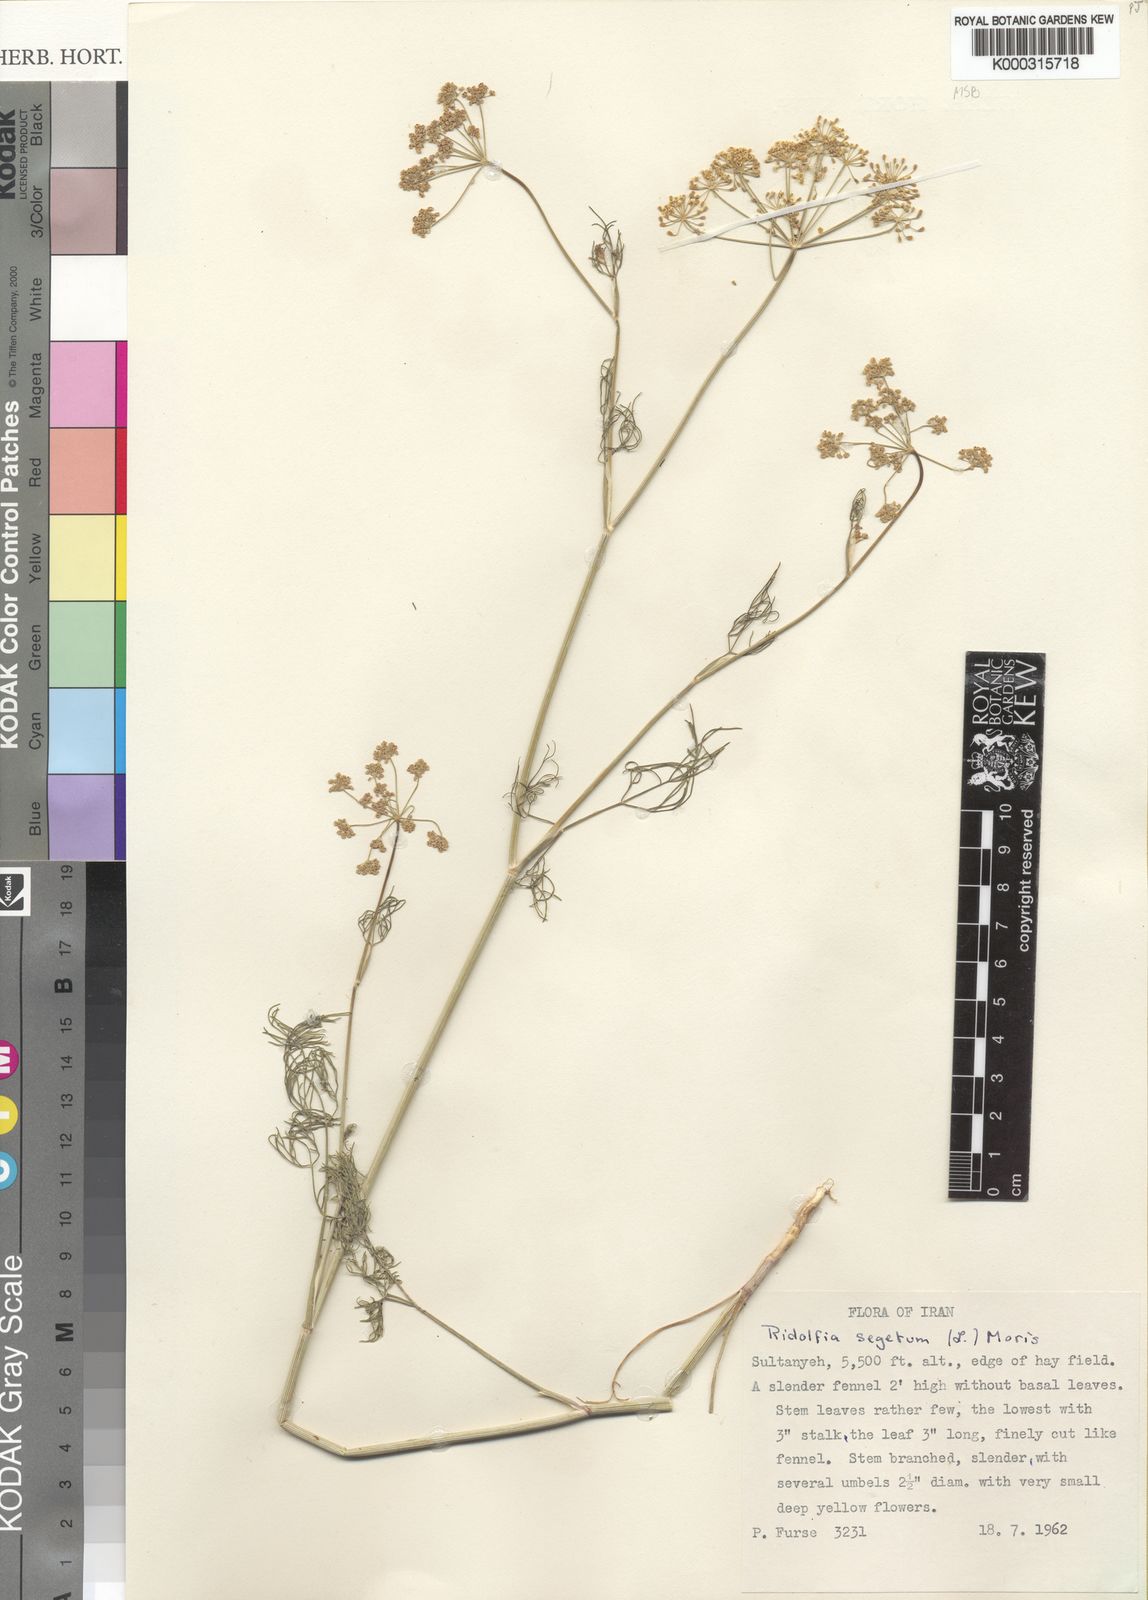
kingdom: Plantae
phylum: Tracheophyta
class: Magnoliopsida
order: Apiales
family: Apiaceae
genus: Anethum
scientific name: Anethum ridolfia
